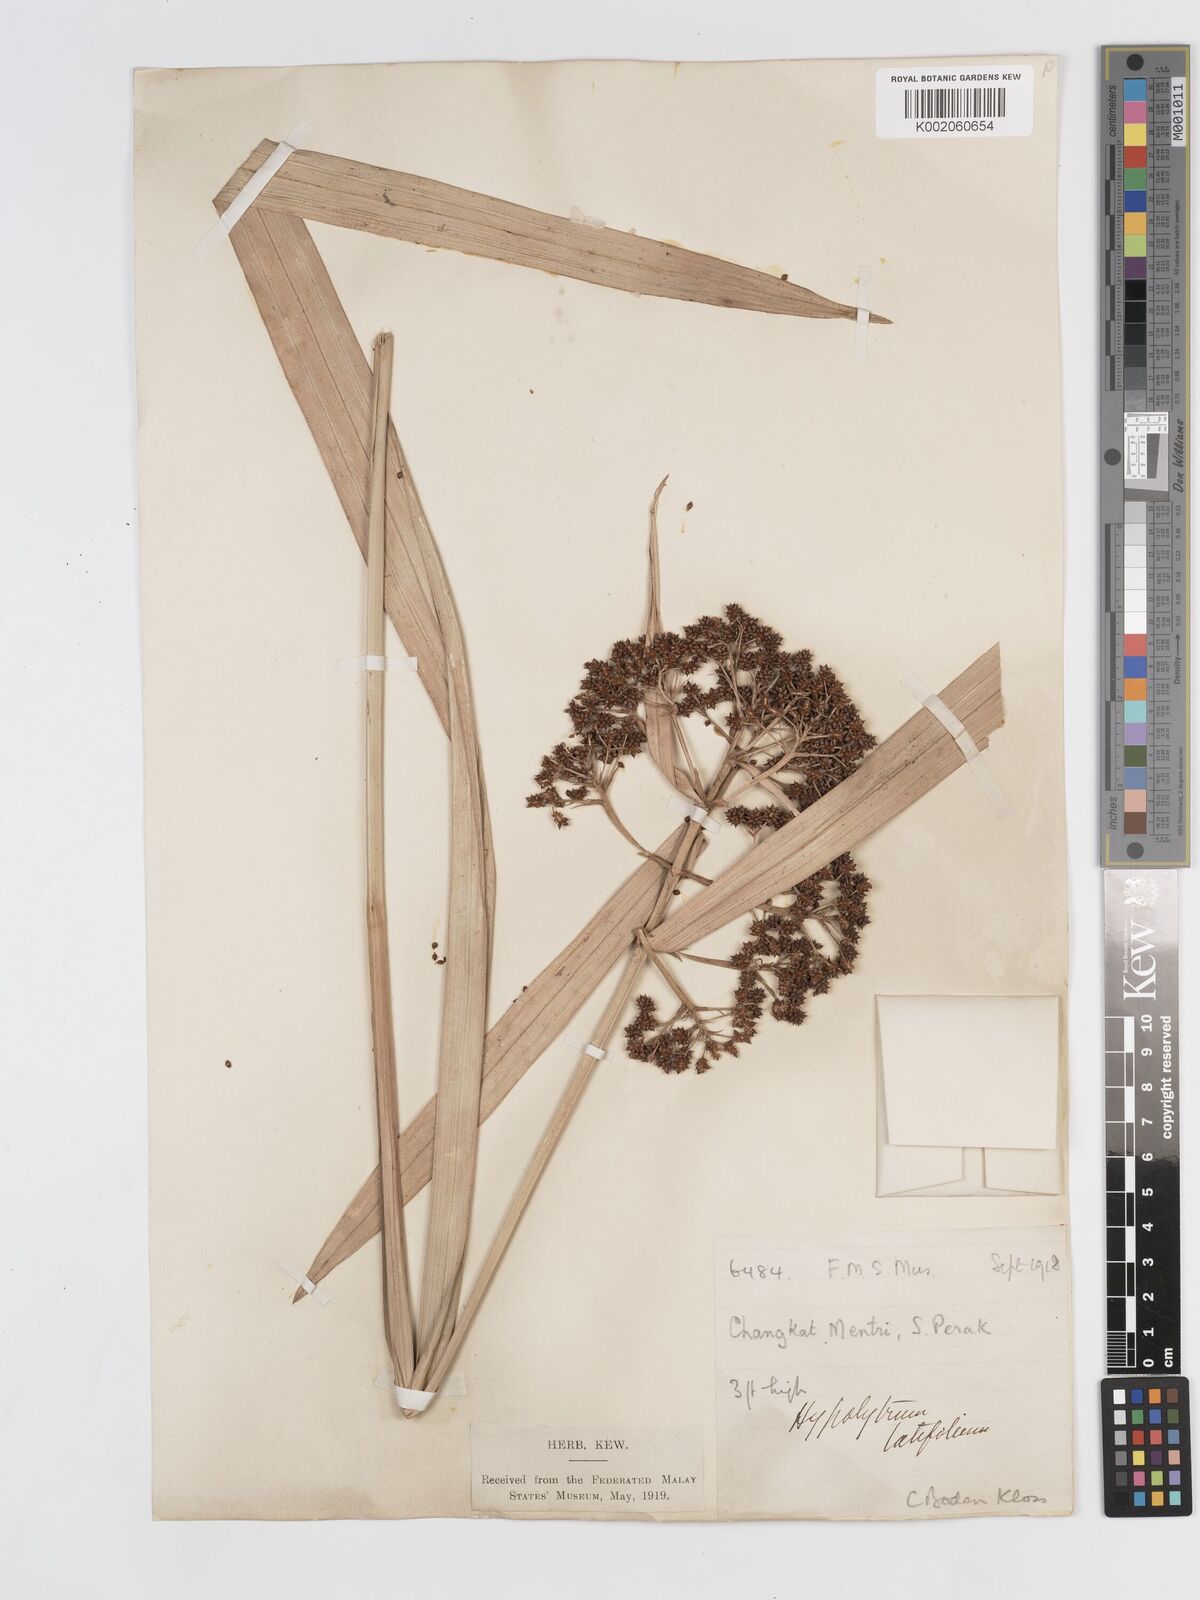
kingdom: Plantae
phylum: Tracheophyta
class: Liliopsida
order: Poales
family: Cyperaceae
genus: Hypolytrum
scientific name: Hypolytrum nemorum
